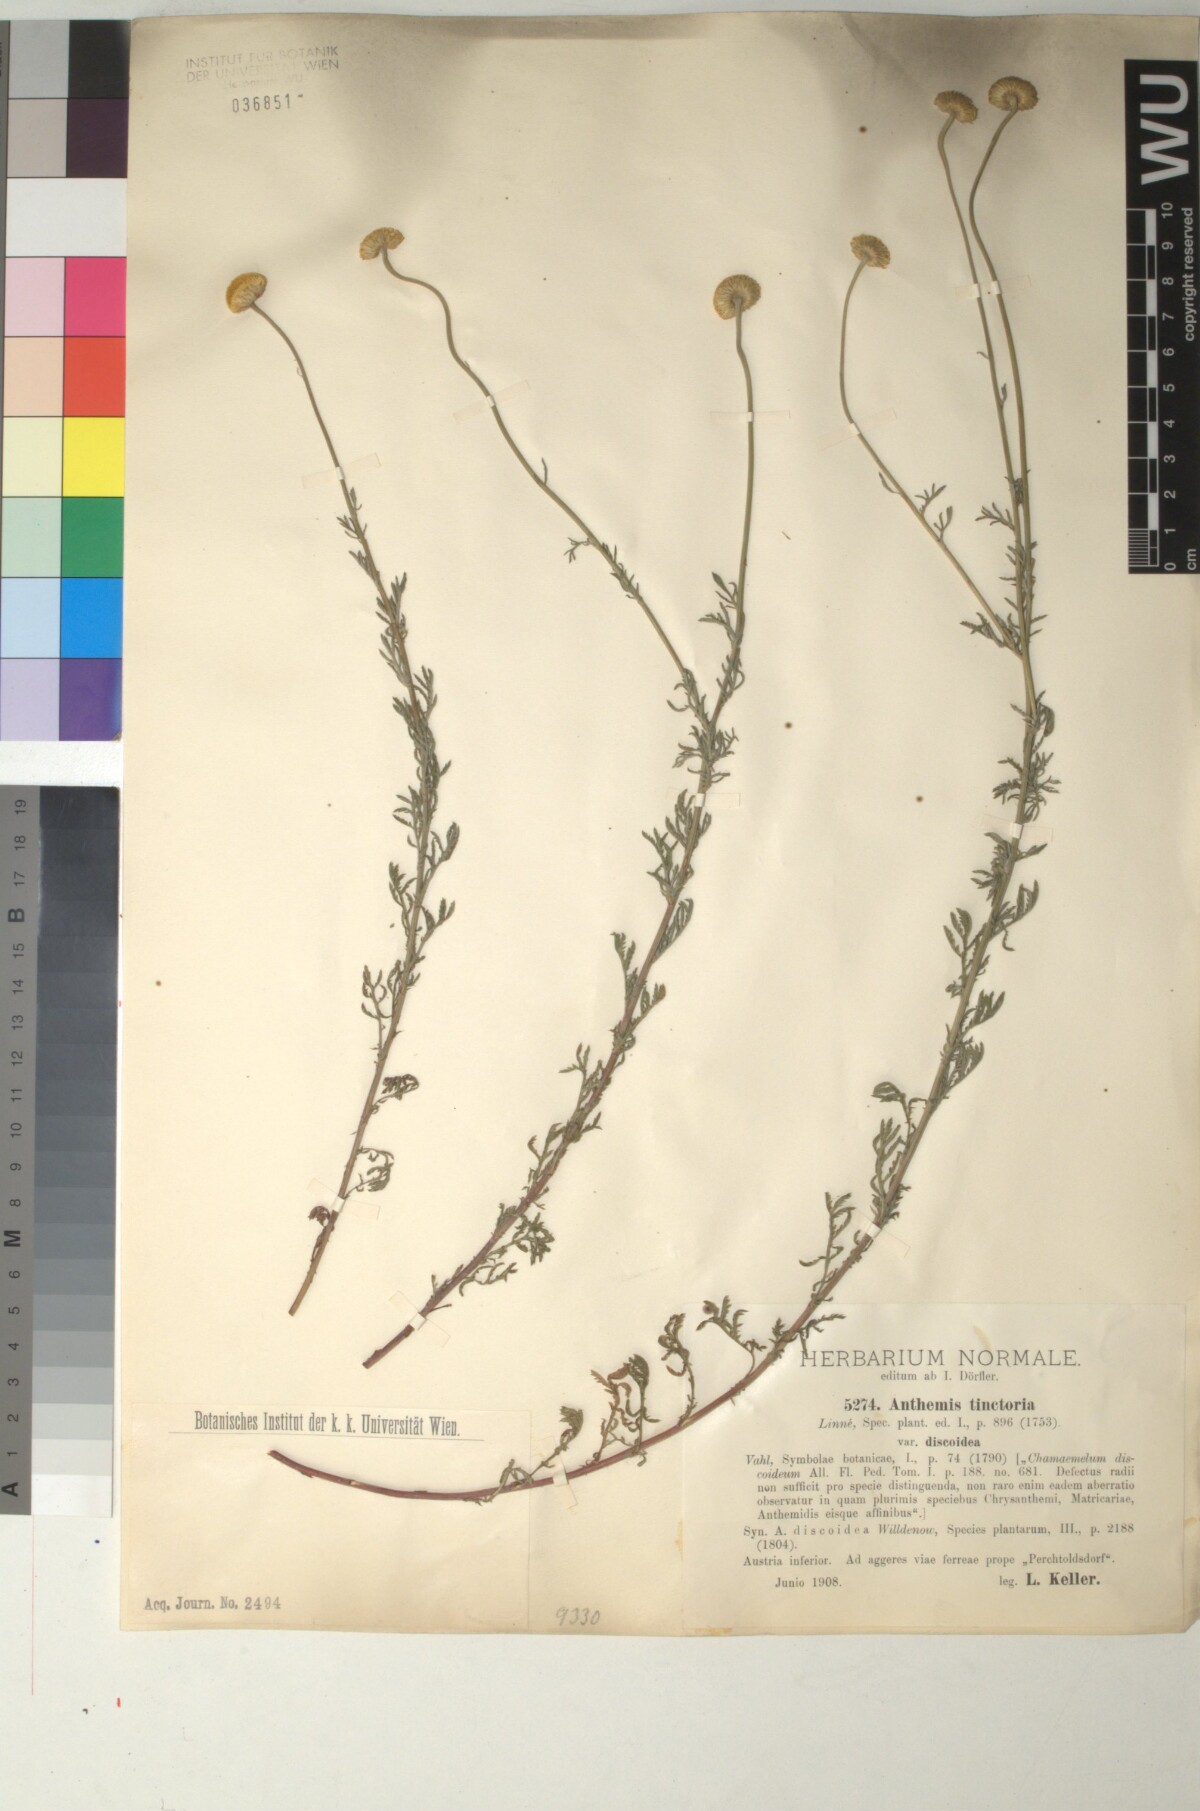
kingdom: Plantae
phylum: Tracheophyta
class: Magnoliopsida
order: Asterales
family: Asteraceae
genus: Cota
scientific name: Cota tinctoria
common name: Golden chamomile
